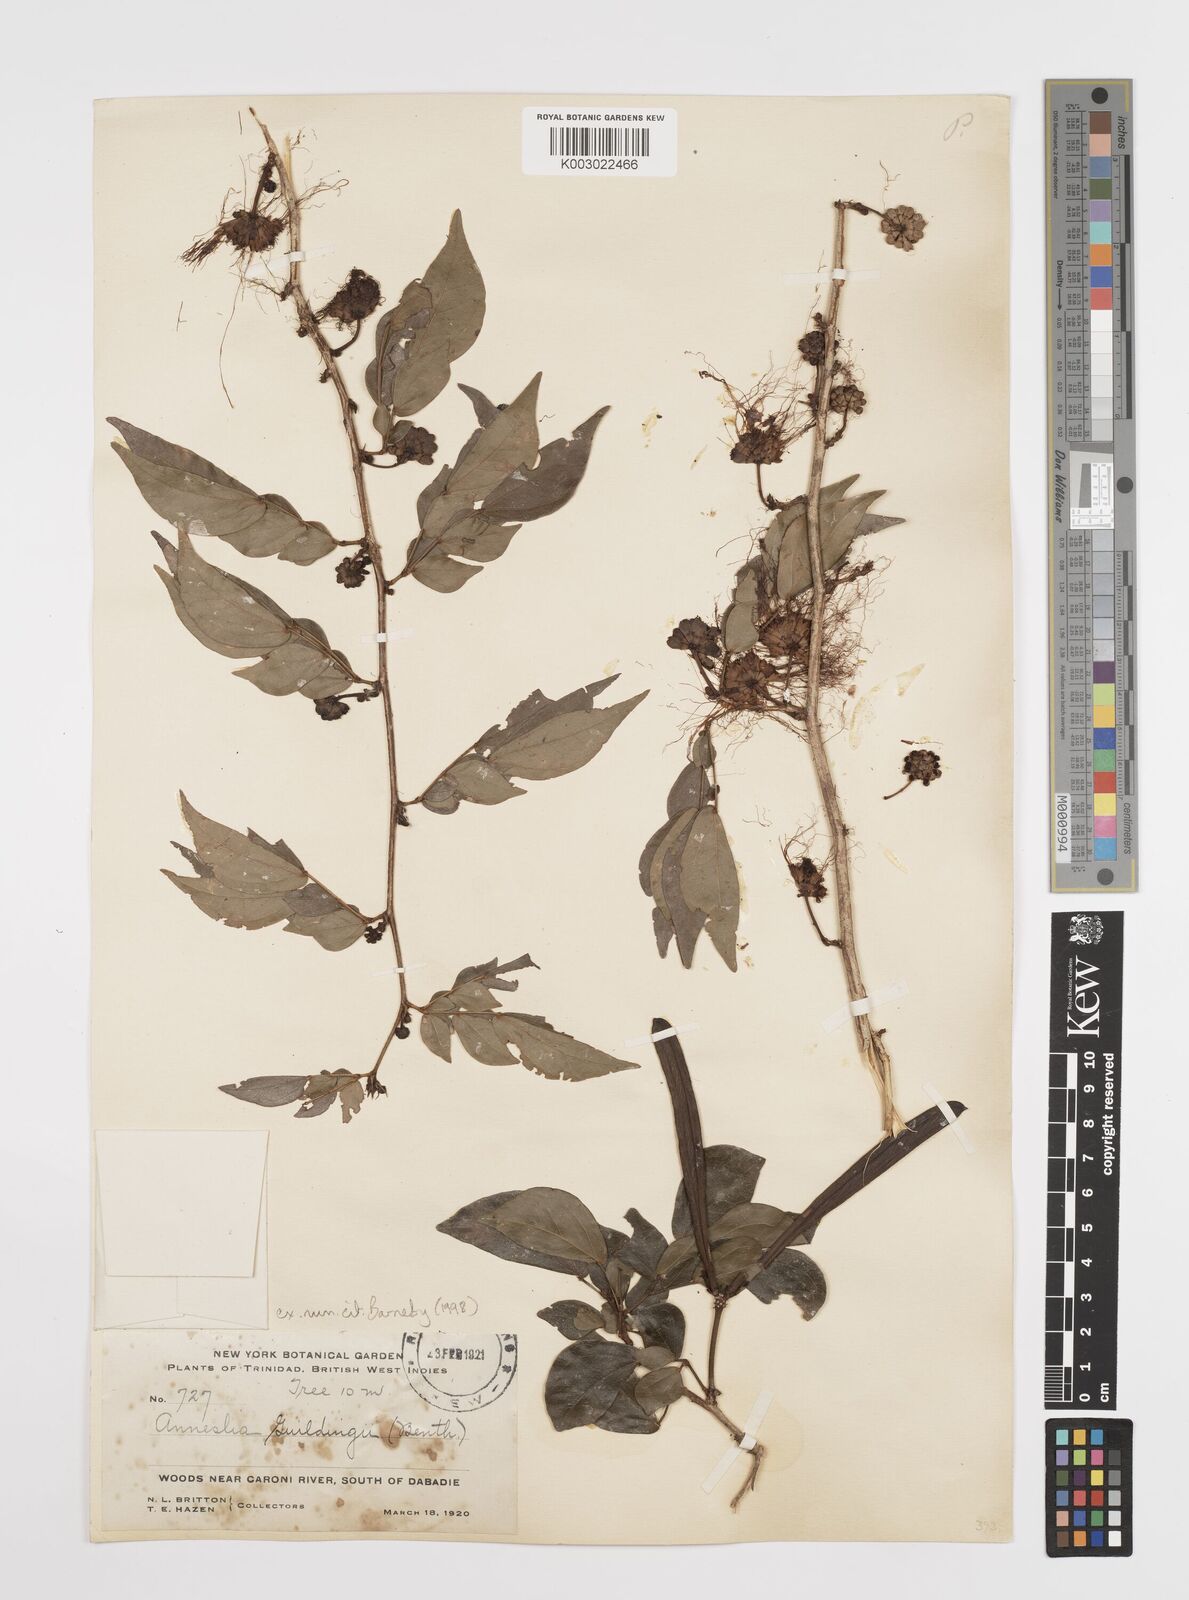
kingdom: Plantae
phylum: Tracheophyta
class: Magnoliopsida
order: Fabales
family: Fabaceae
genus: Calliandra
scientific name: Calliandra guildingii
